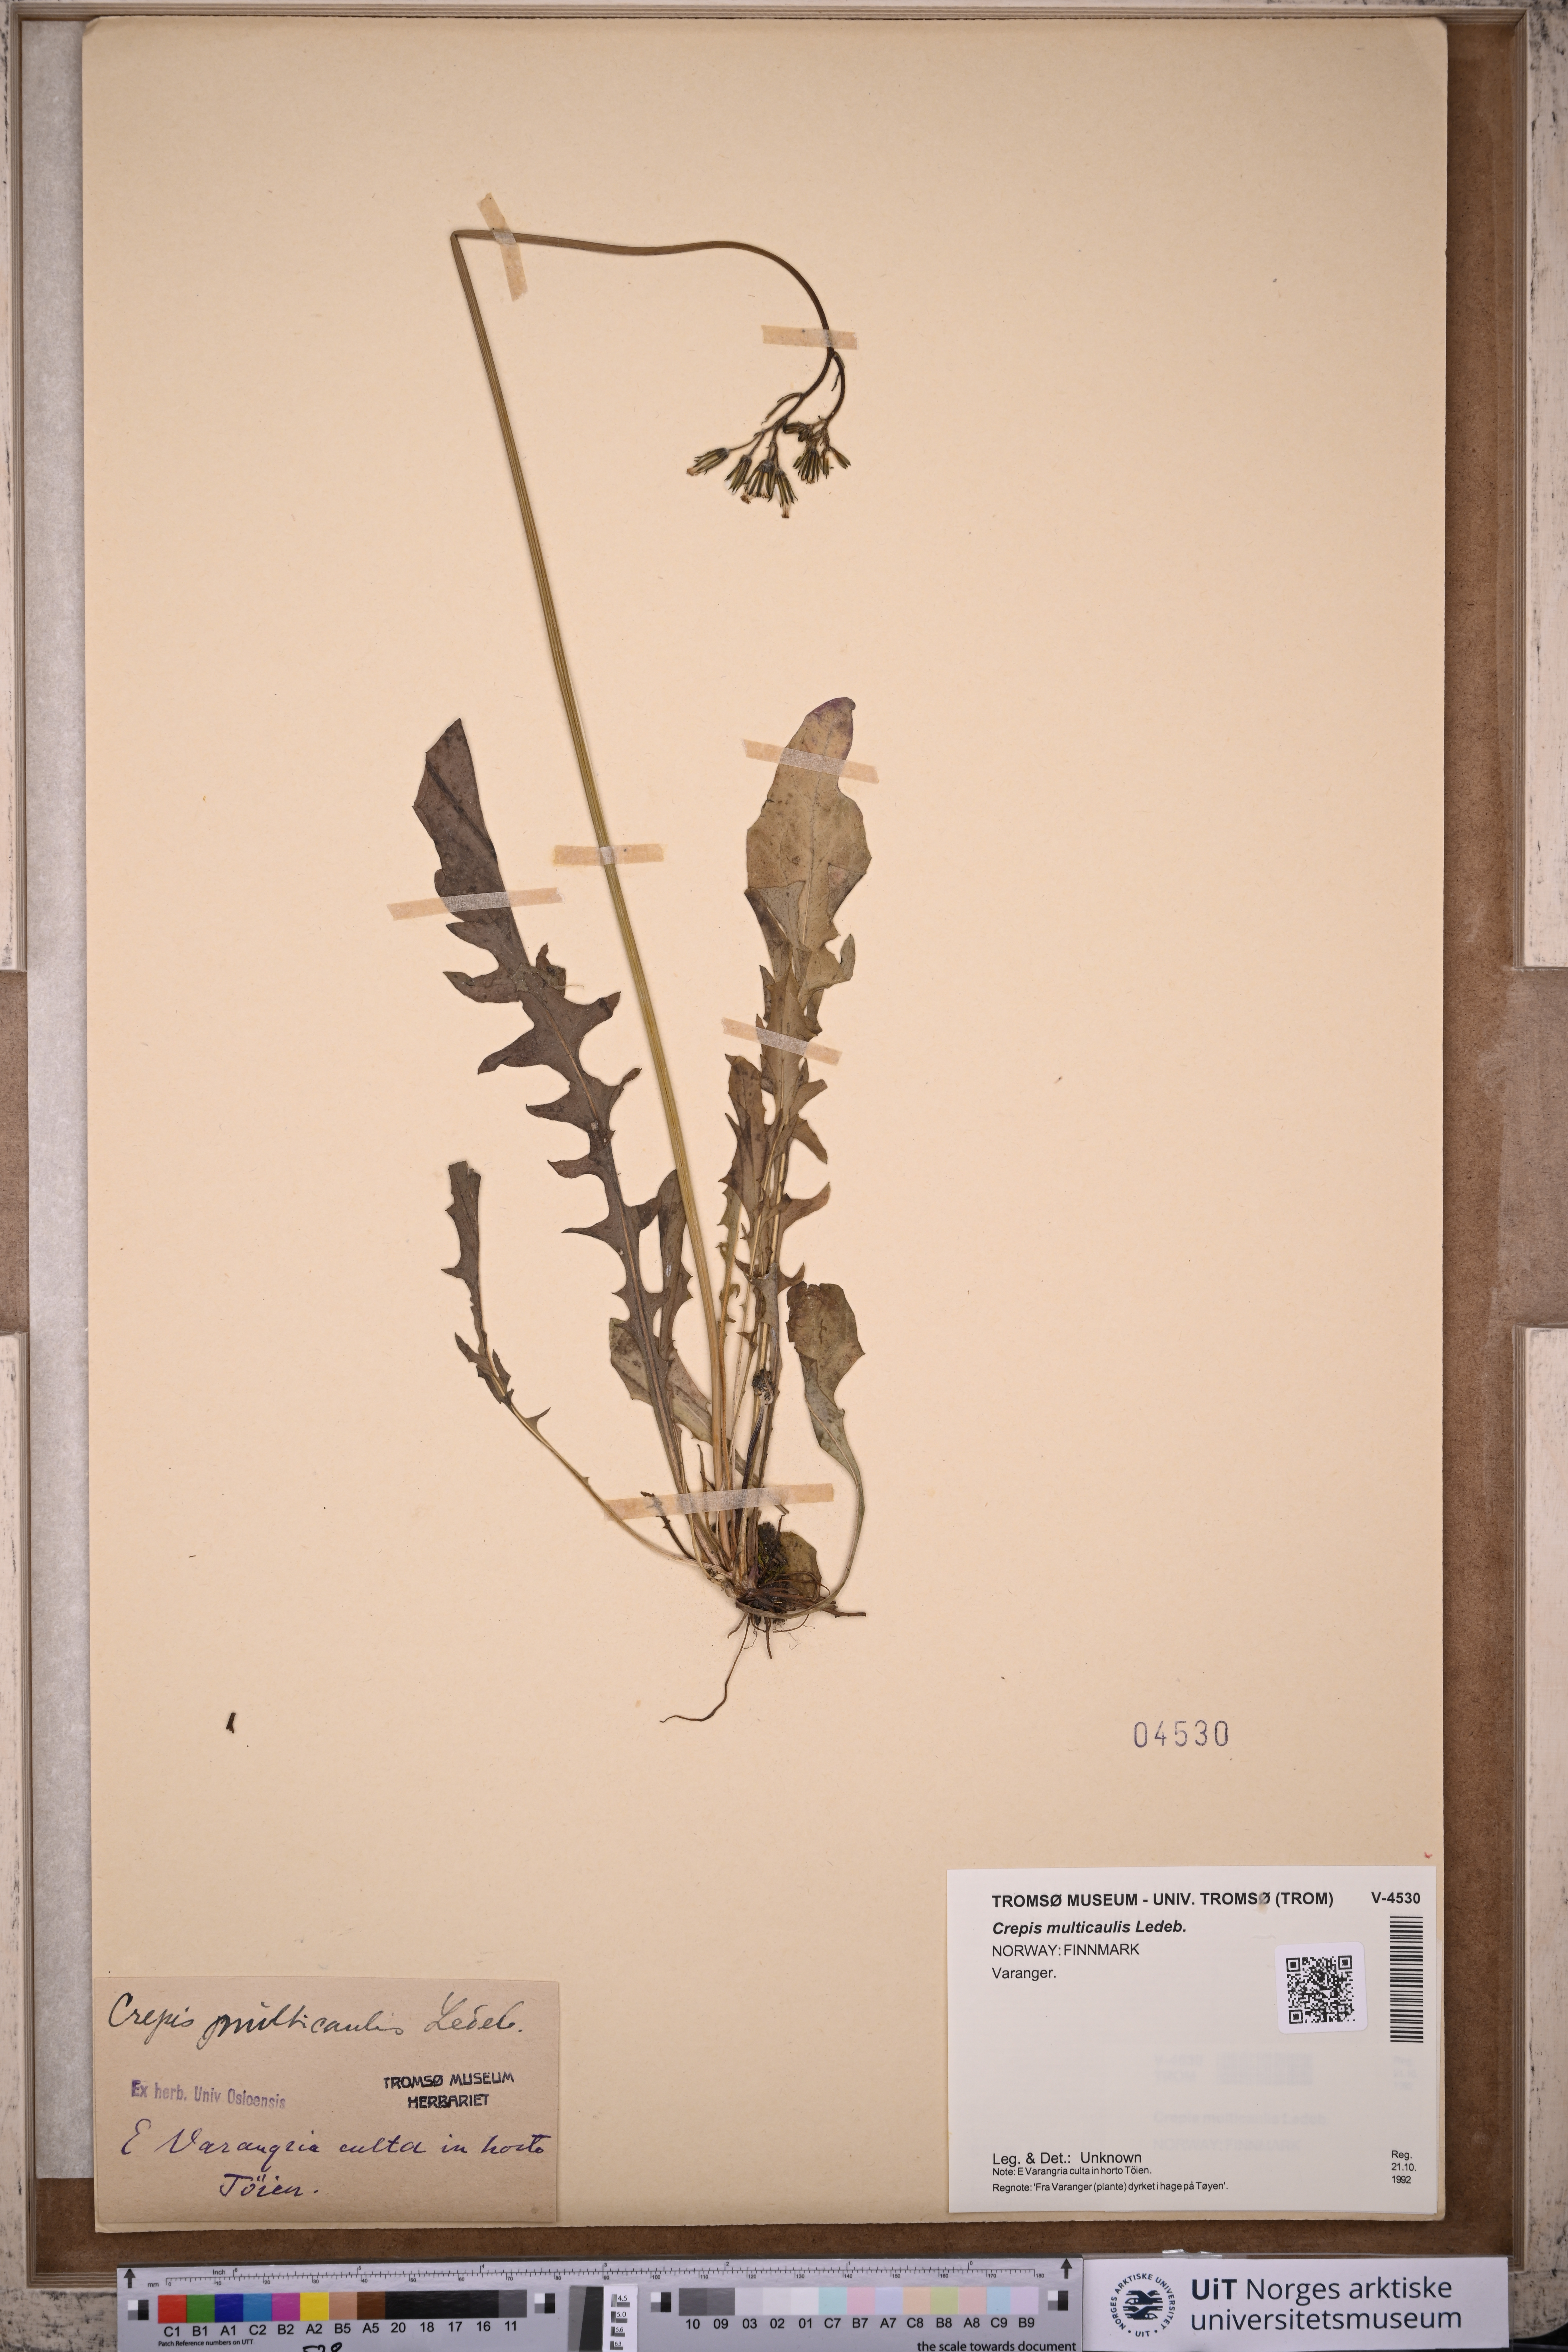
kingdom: Plantae
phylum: Tracheophyta
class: Magnoliopsida
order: Asterales
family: Asteraceae
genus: Crepis
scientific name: Crepis multicaulis
